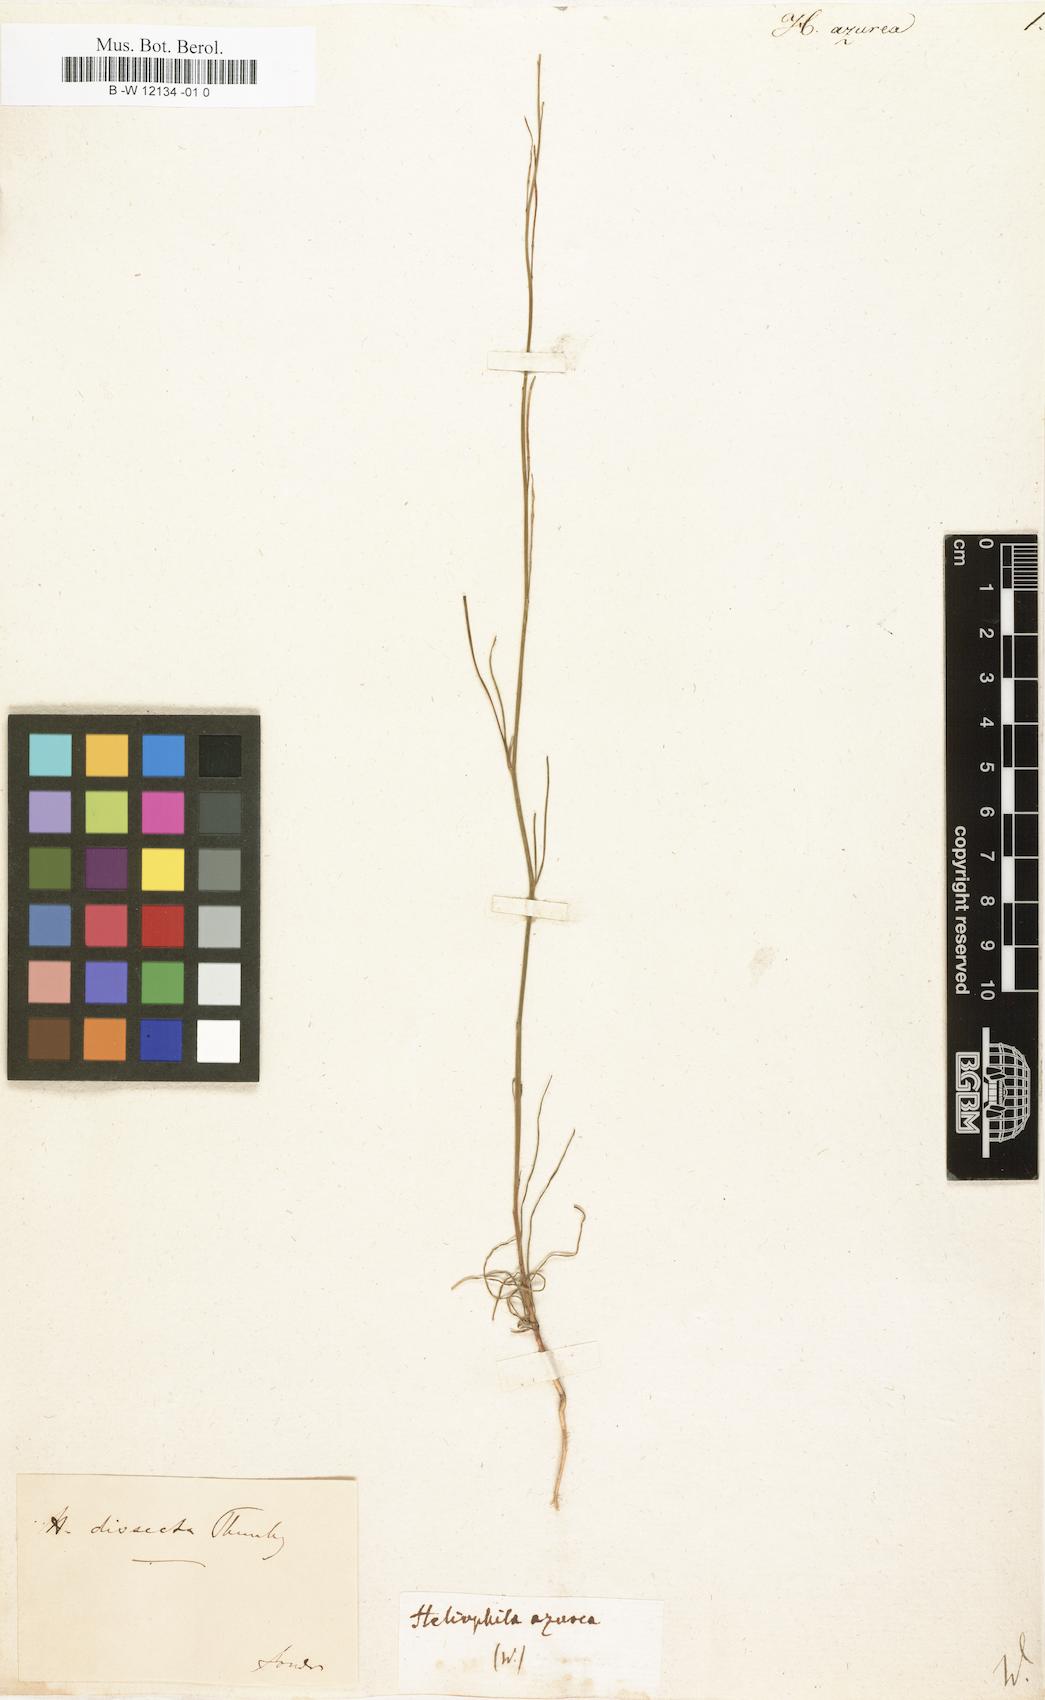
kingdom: Plantae
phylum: Tracheophyta
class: Magnoliopsida
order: Brassicales
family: Brassicaceae
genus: Heliophila
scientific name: Heliophila coronopifolia
